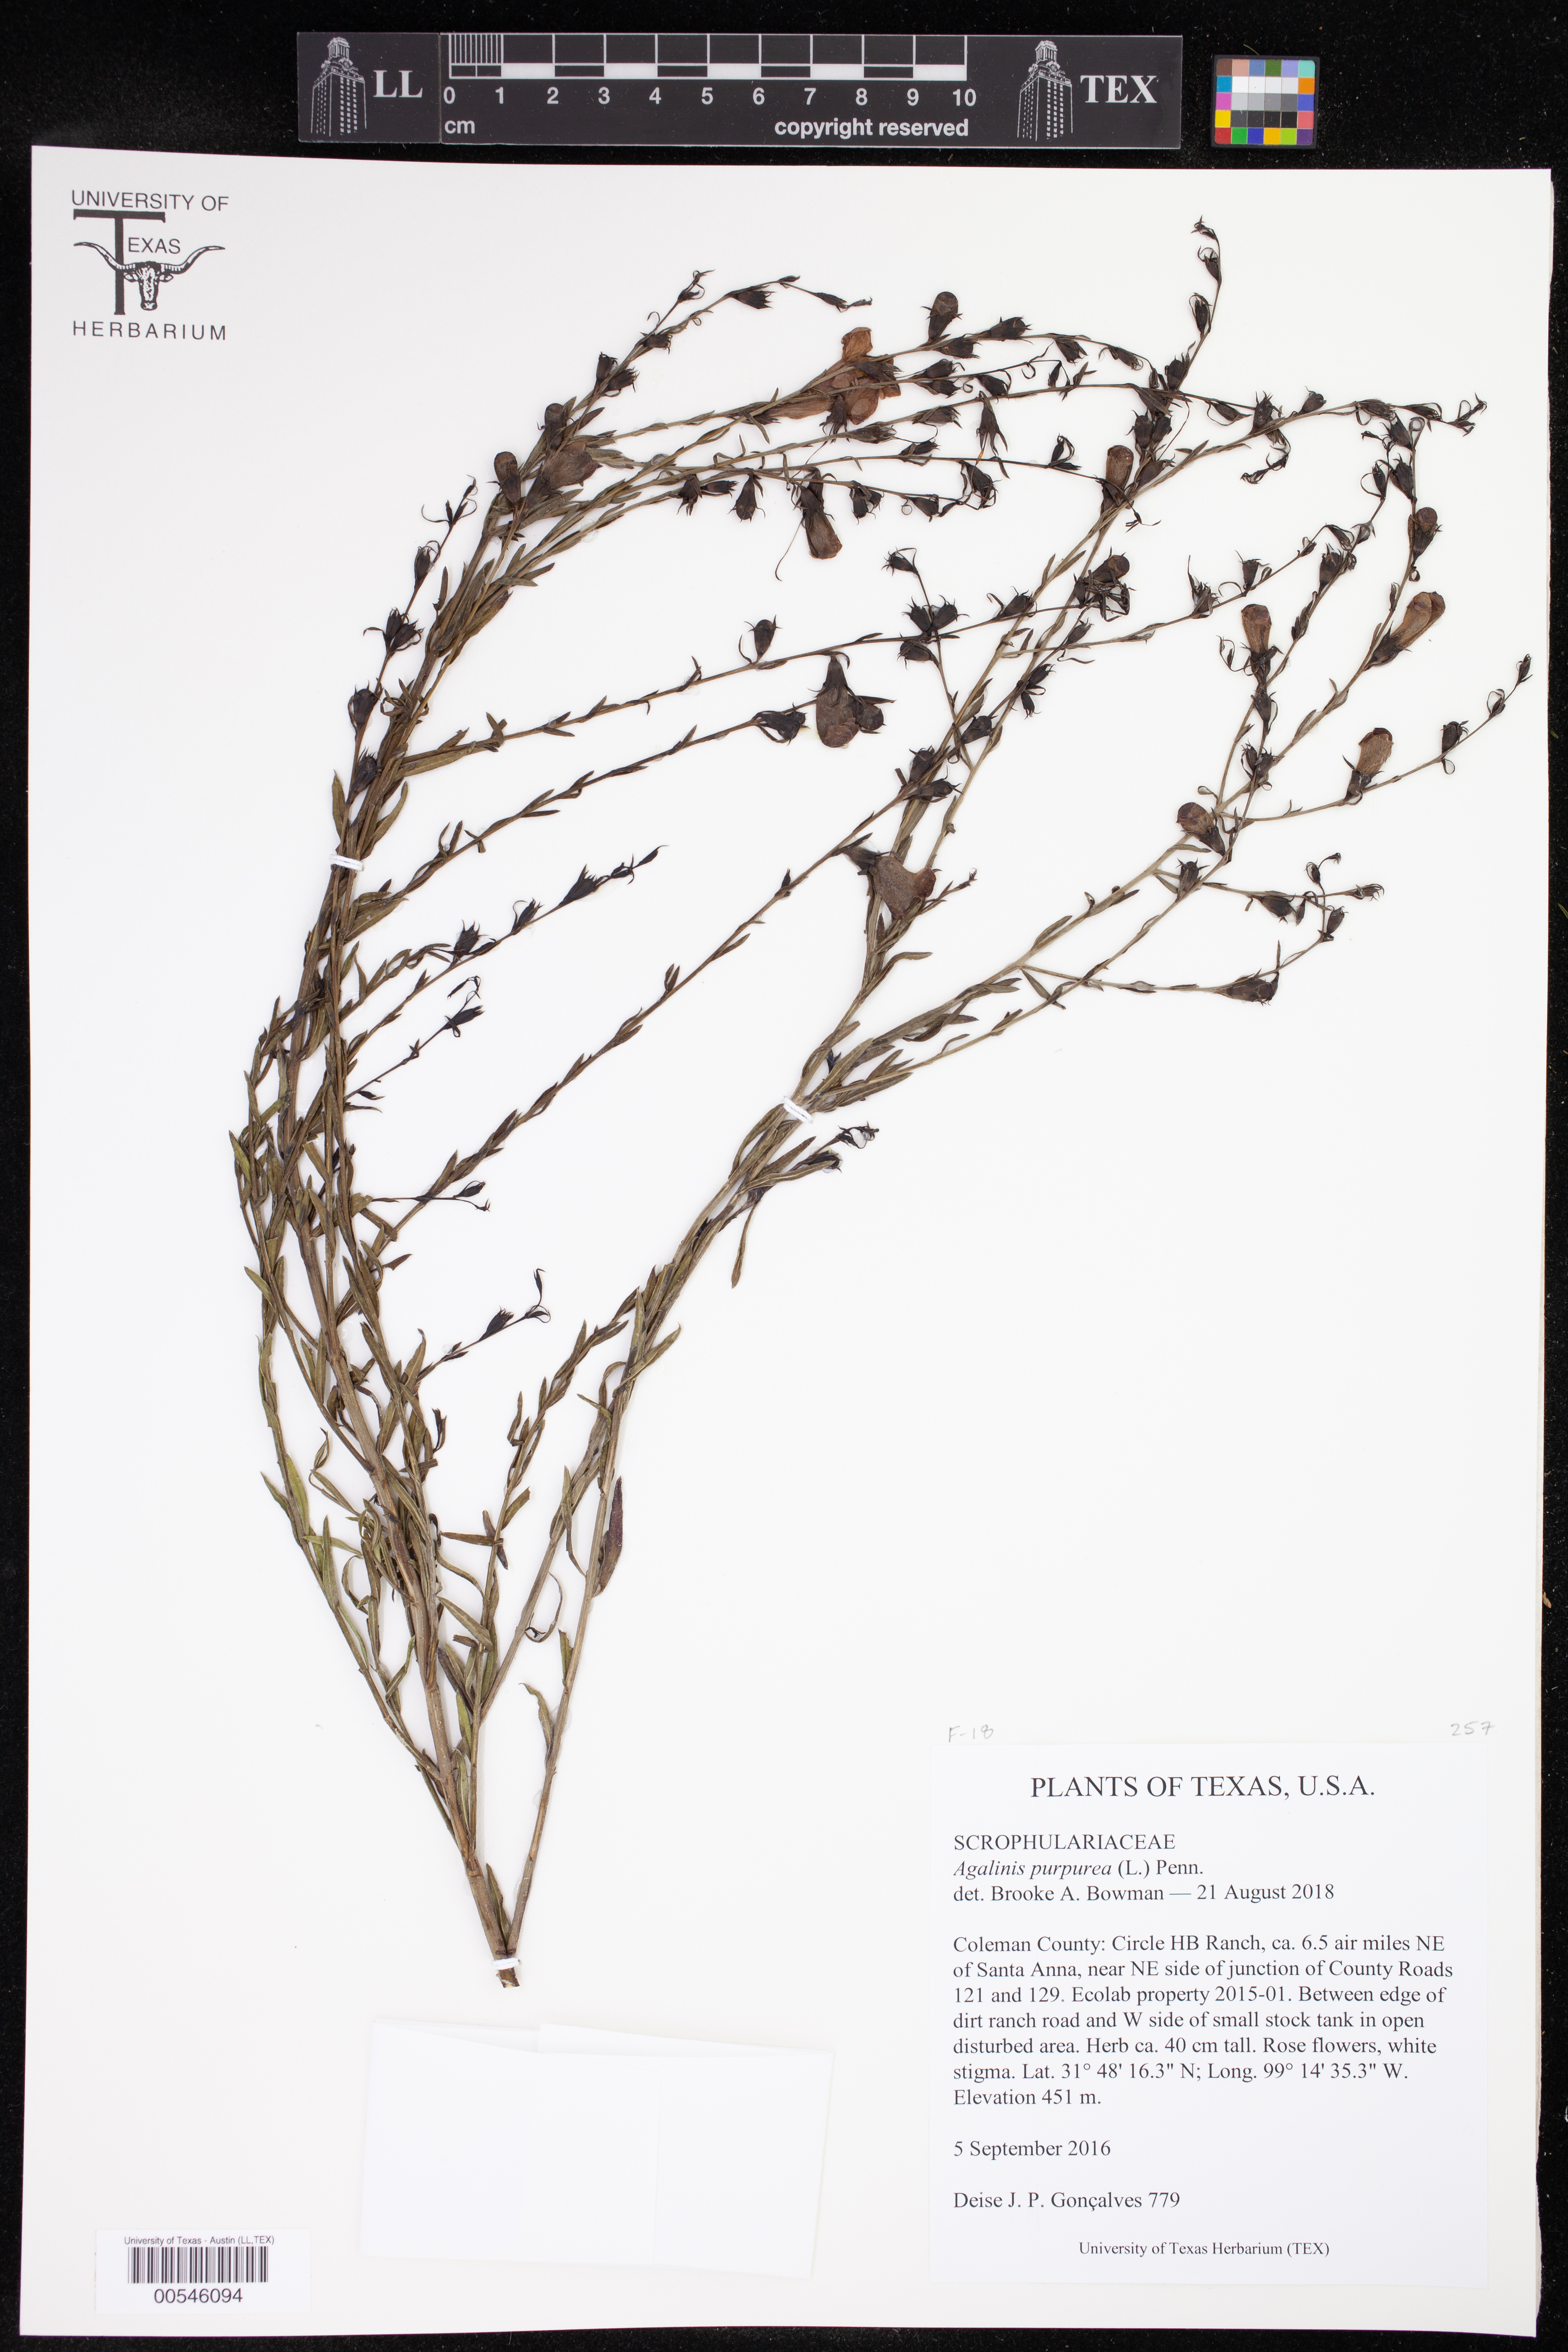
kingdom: Plantae
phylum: Tracheophyta
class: Magnoliopsida
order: Lamiales
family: Orobanchaceae
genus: Agalinis
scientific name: Agalinis purpurea
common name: Purple false foxglove
